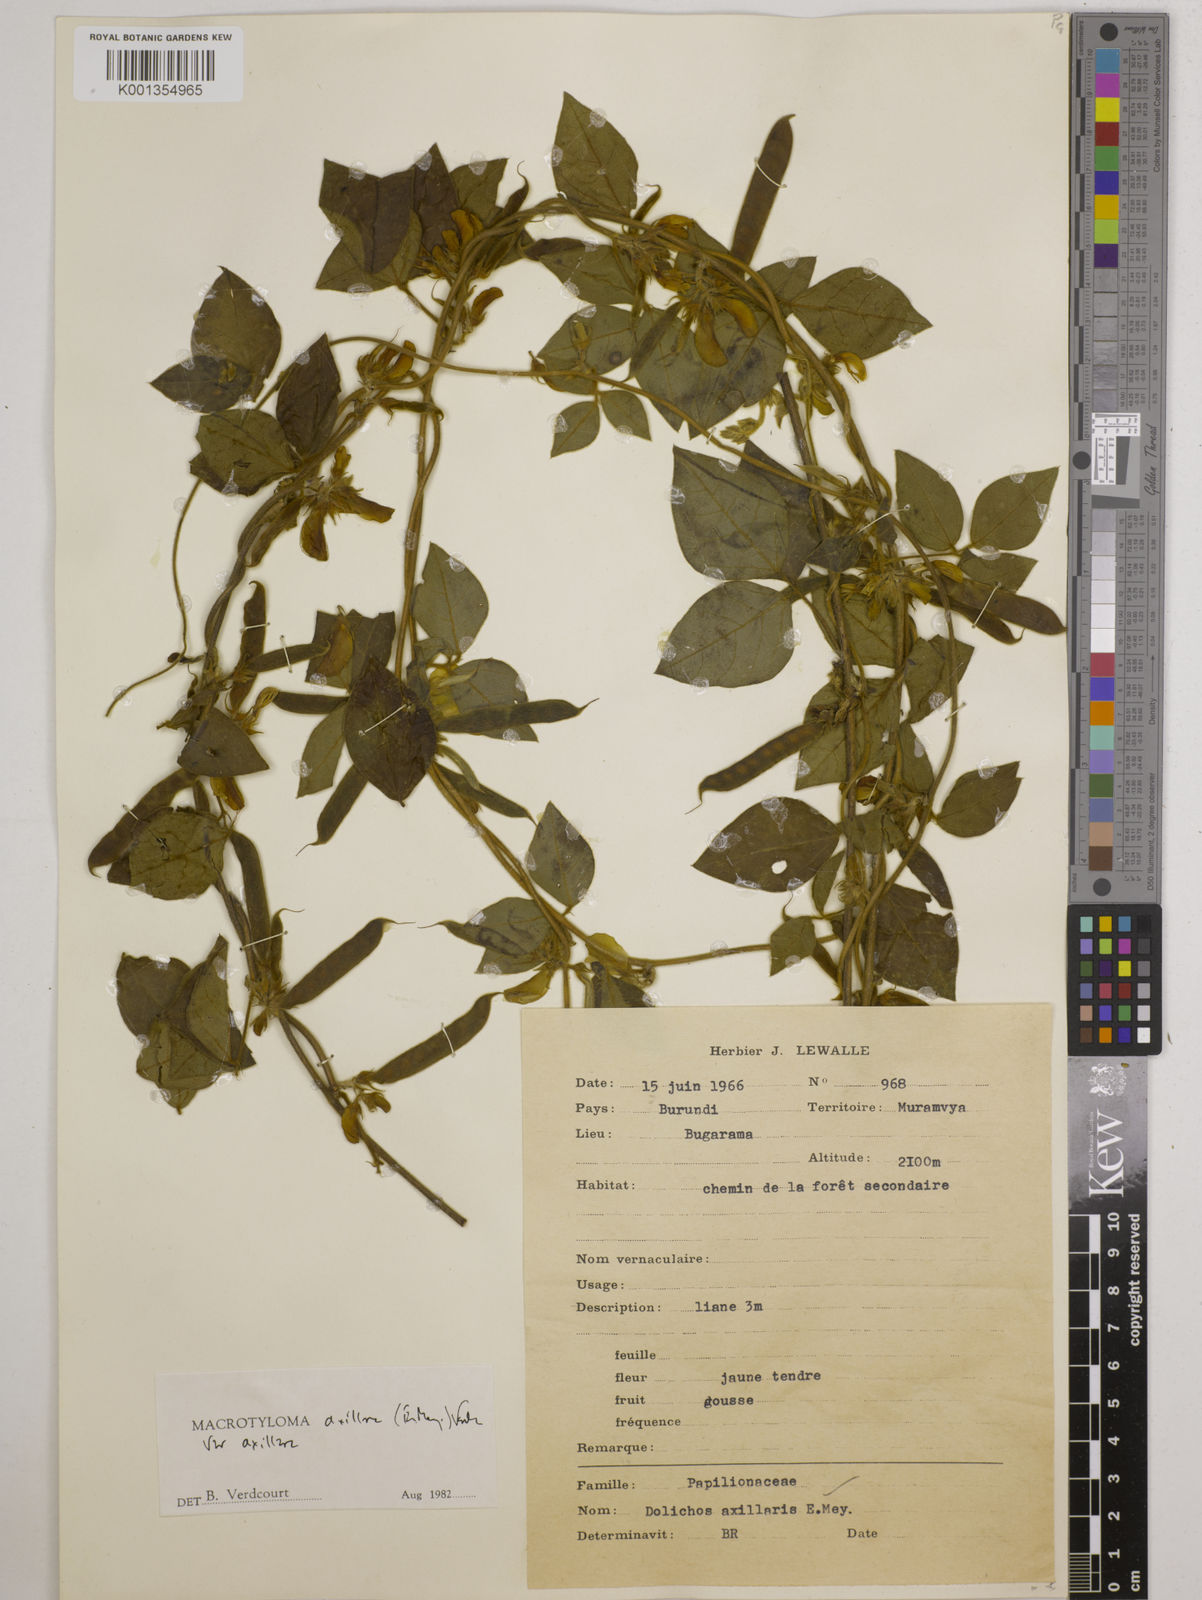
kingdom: Plantae
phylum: Tracheophyta
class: Magnoliopsida
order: Fabales
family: Fabaceae
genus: Macrotyloma
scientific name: Macrotyloma axillare
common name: Perennial horsegram
